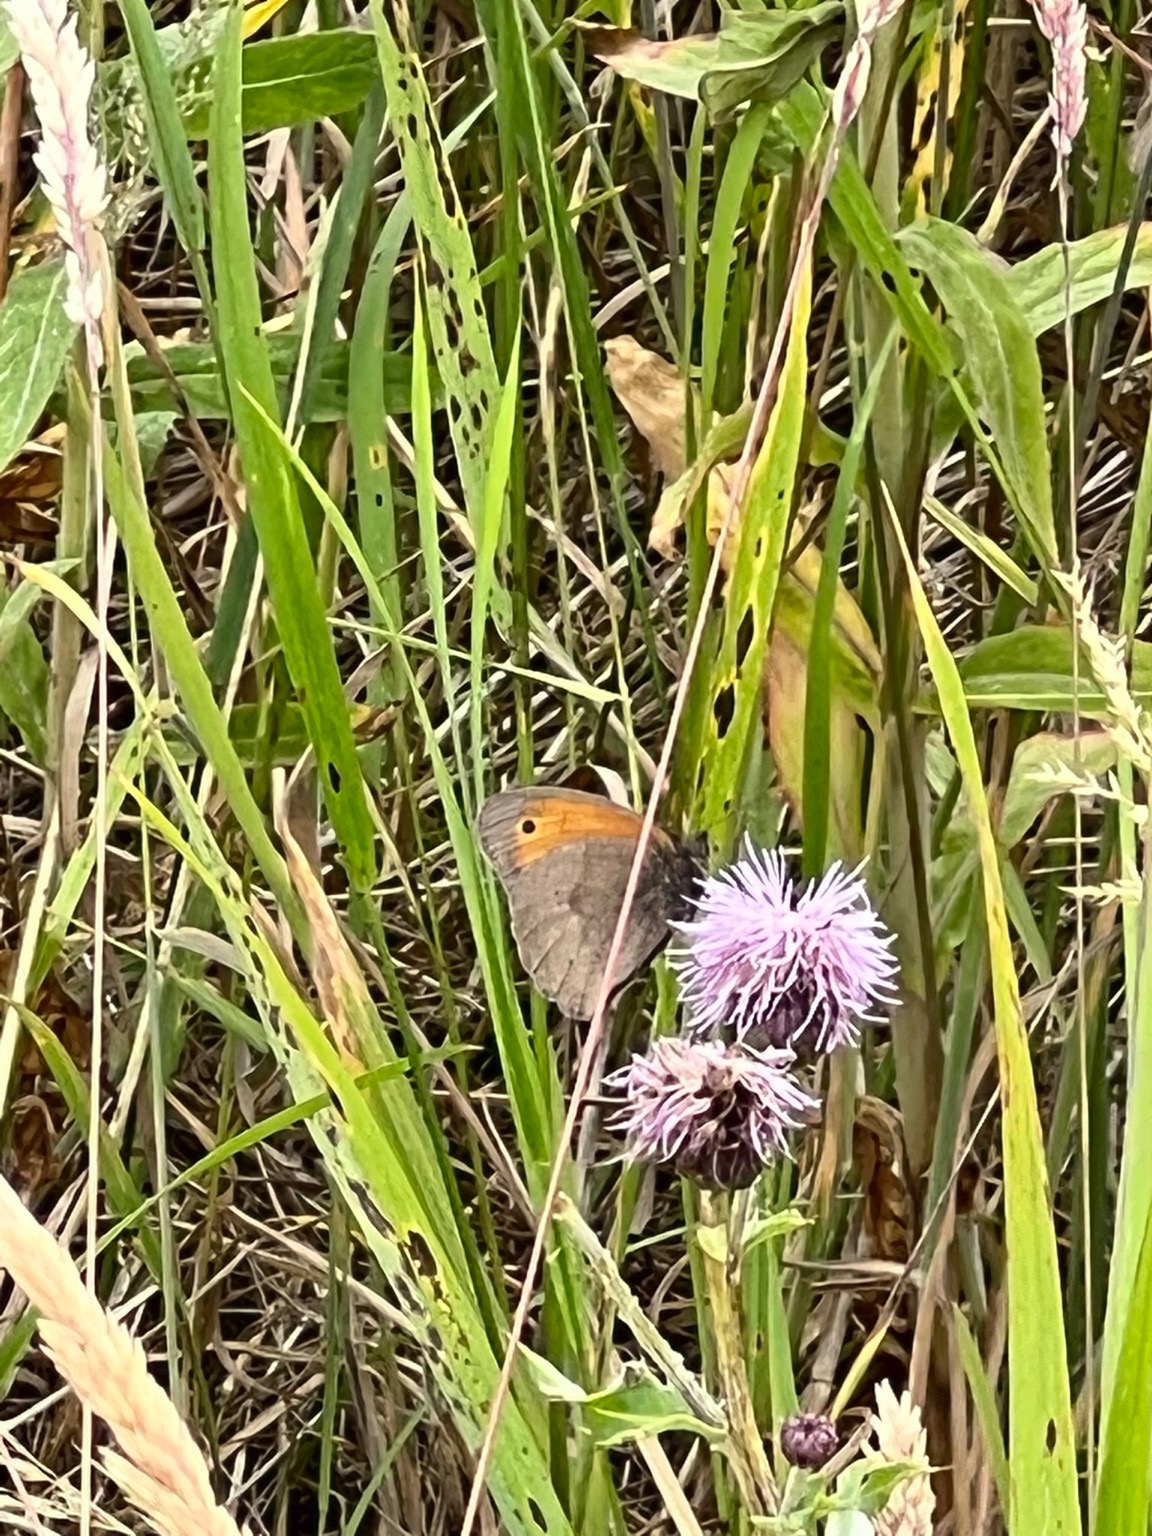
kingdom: Animalia
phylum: Arthropoda
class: Insecta
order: Lepidoptera
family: Nymphalidae
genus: Maniola
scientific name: Maniola jurtina
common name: Græsrandøje
